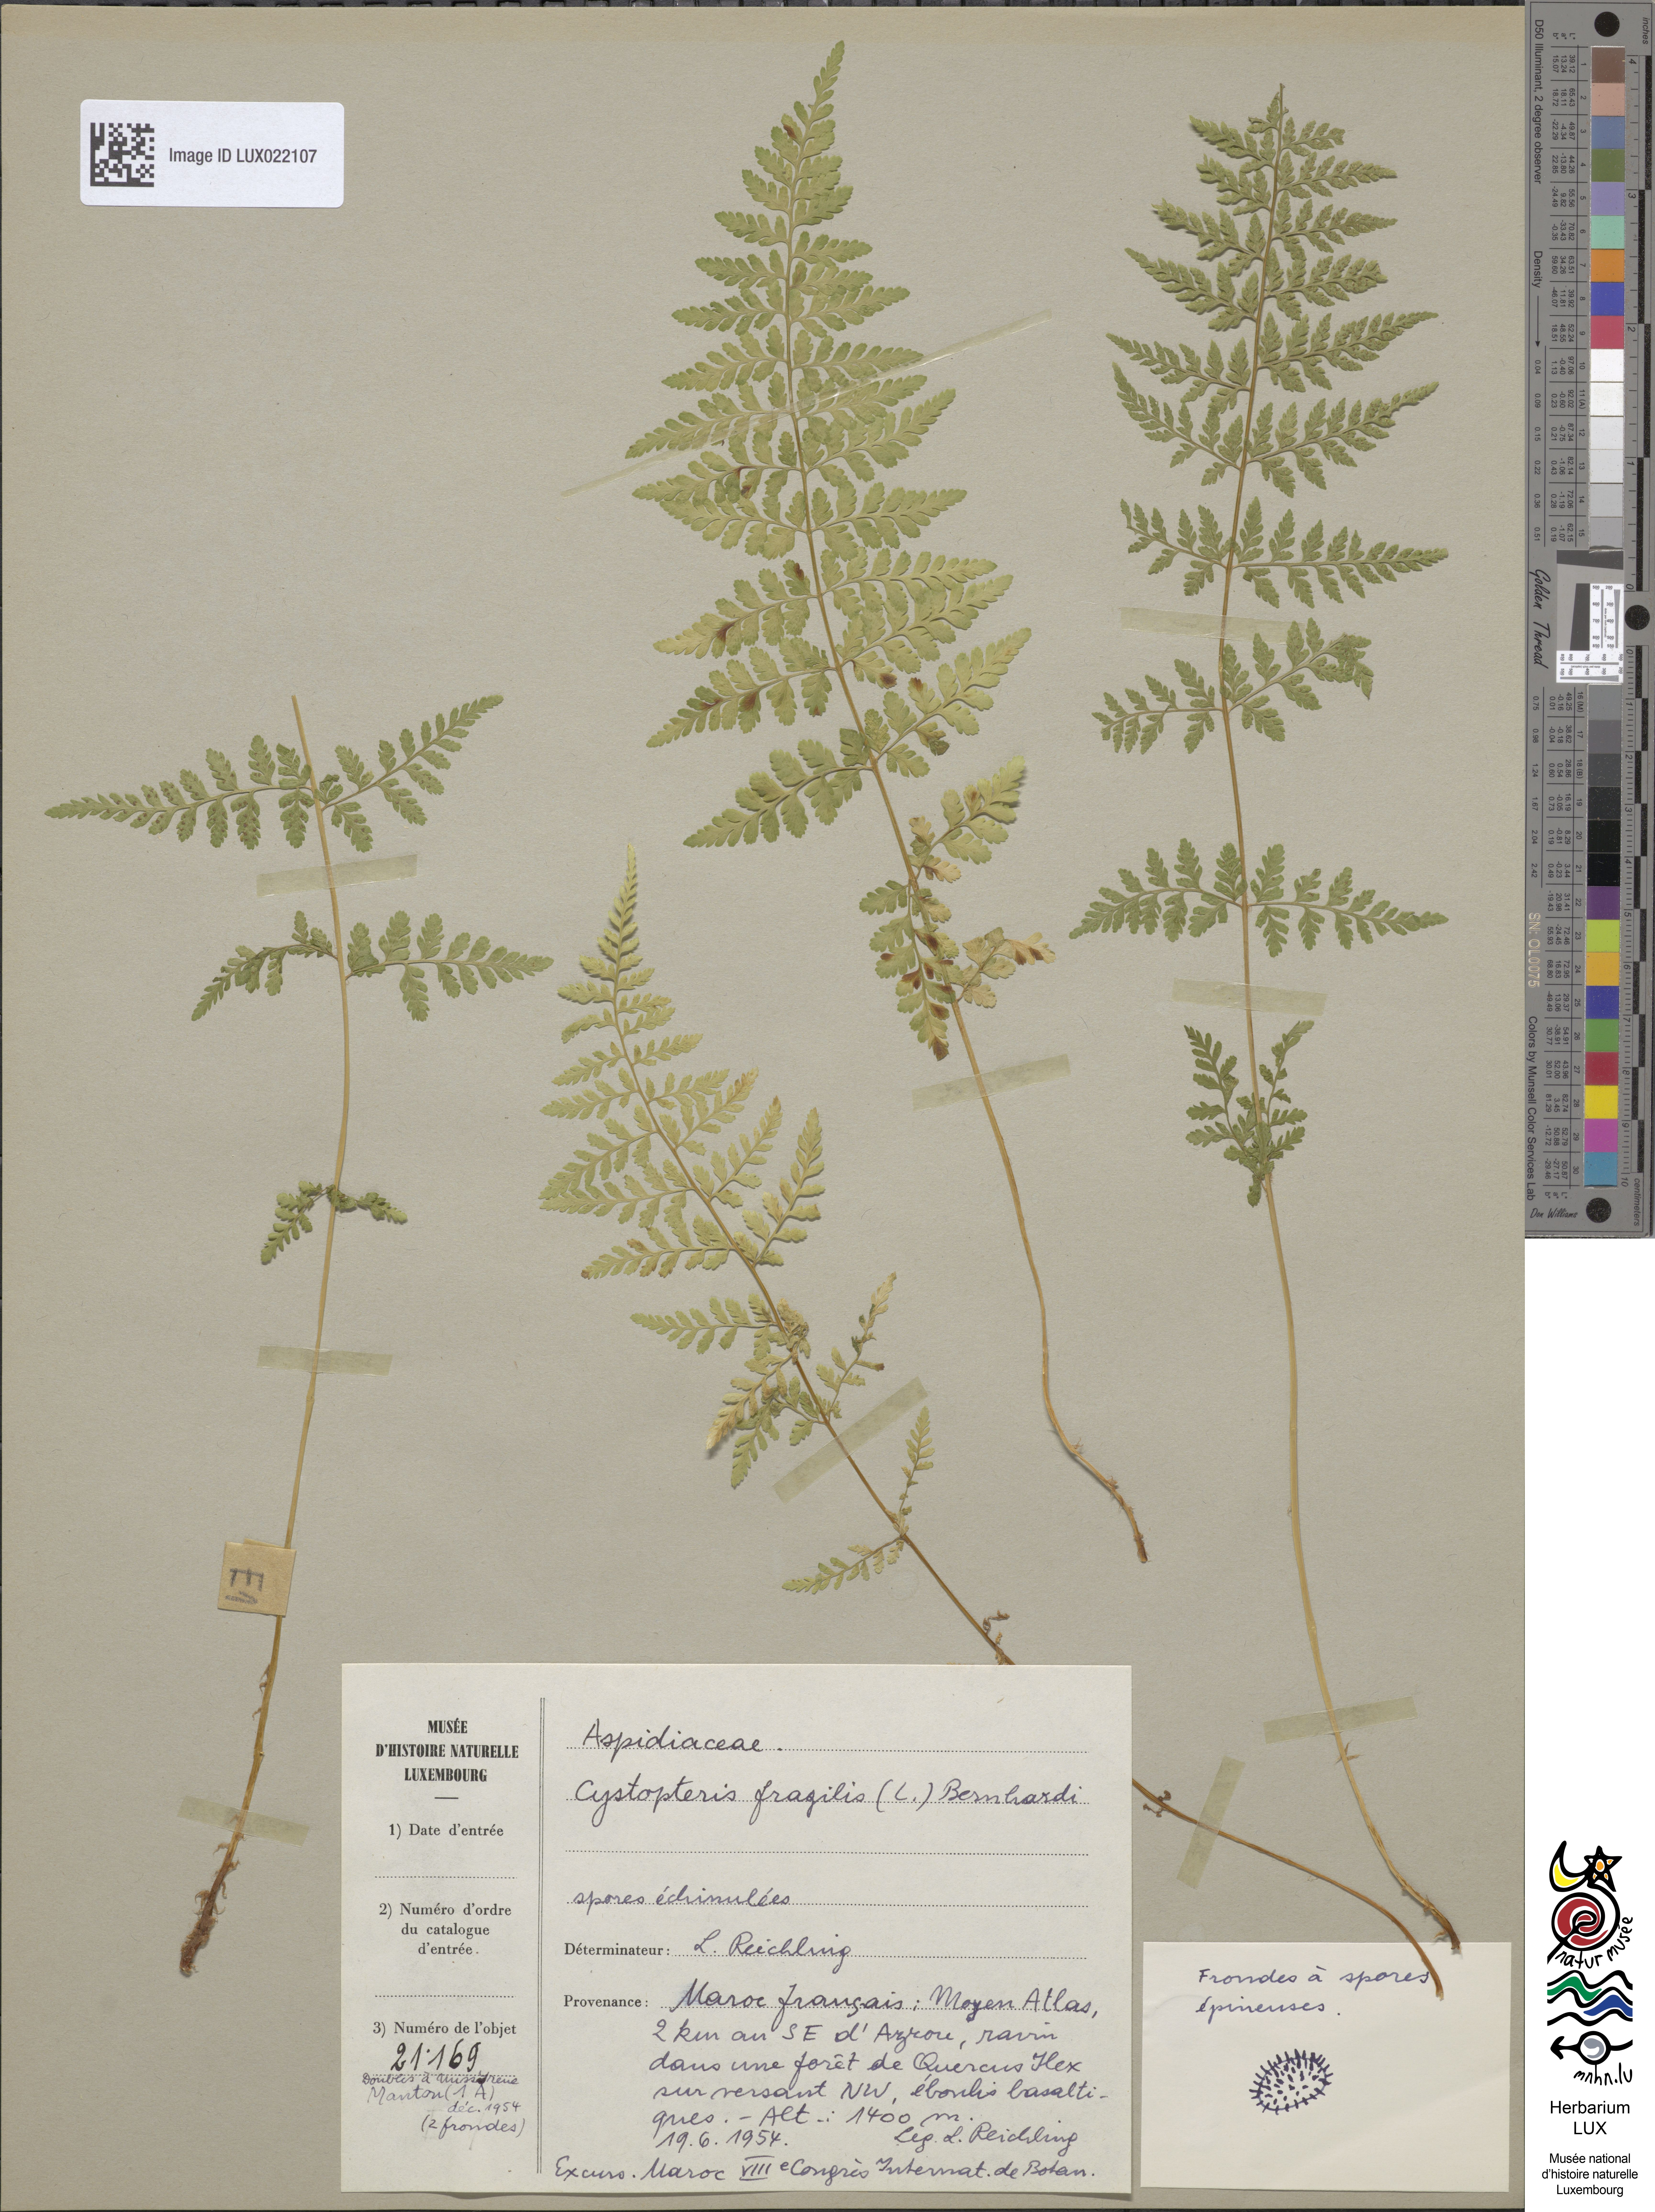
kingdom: Plantae
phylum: Tracheophyta
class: Polypodiopsida
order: Polypodiales
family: Cystopteridaceae
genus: Cystopteris
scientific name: Cystopteris fragilis
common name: Brittle bladder fern
